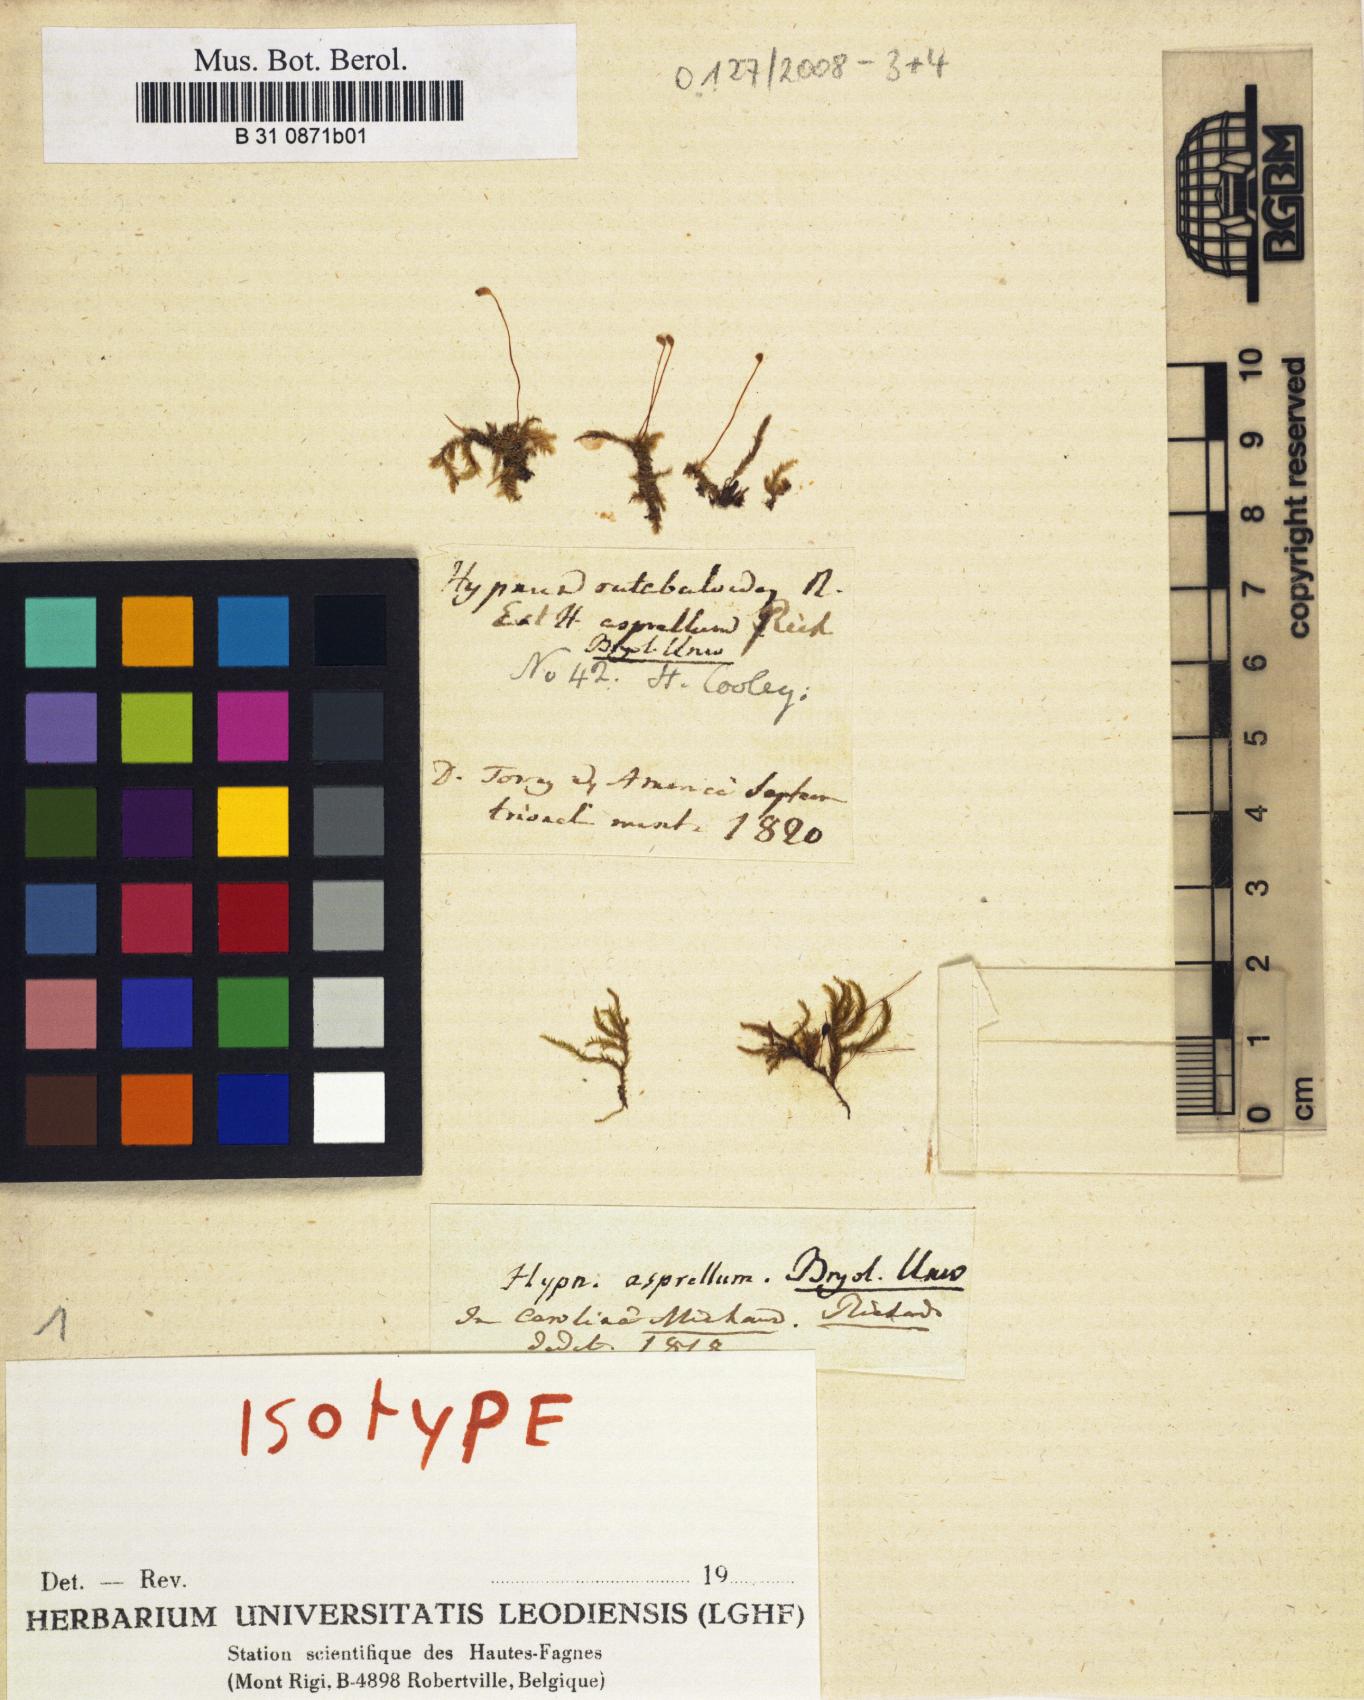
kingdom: Plantae
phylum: Bryophyta
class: Bryopsida
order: Hypnales
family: Brachytheciaceae
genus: Brachythecium
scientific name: Brachythecium laetum
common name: Bright ragged moss
